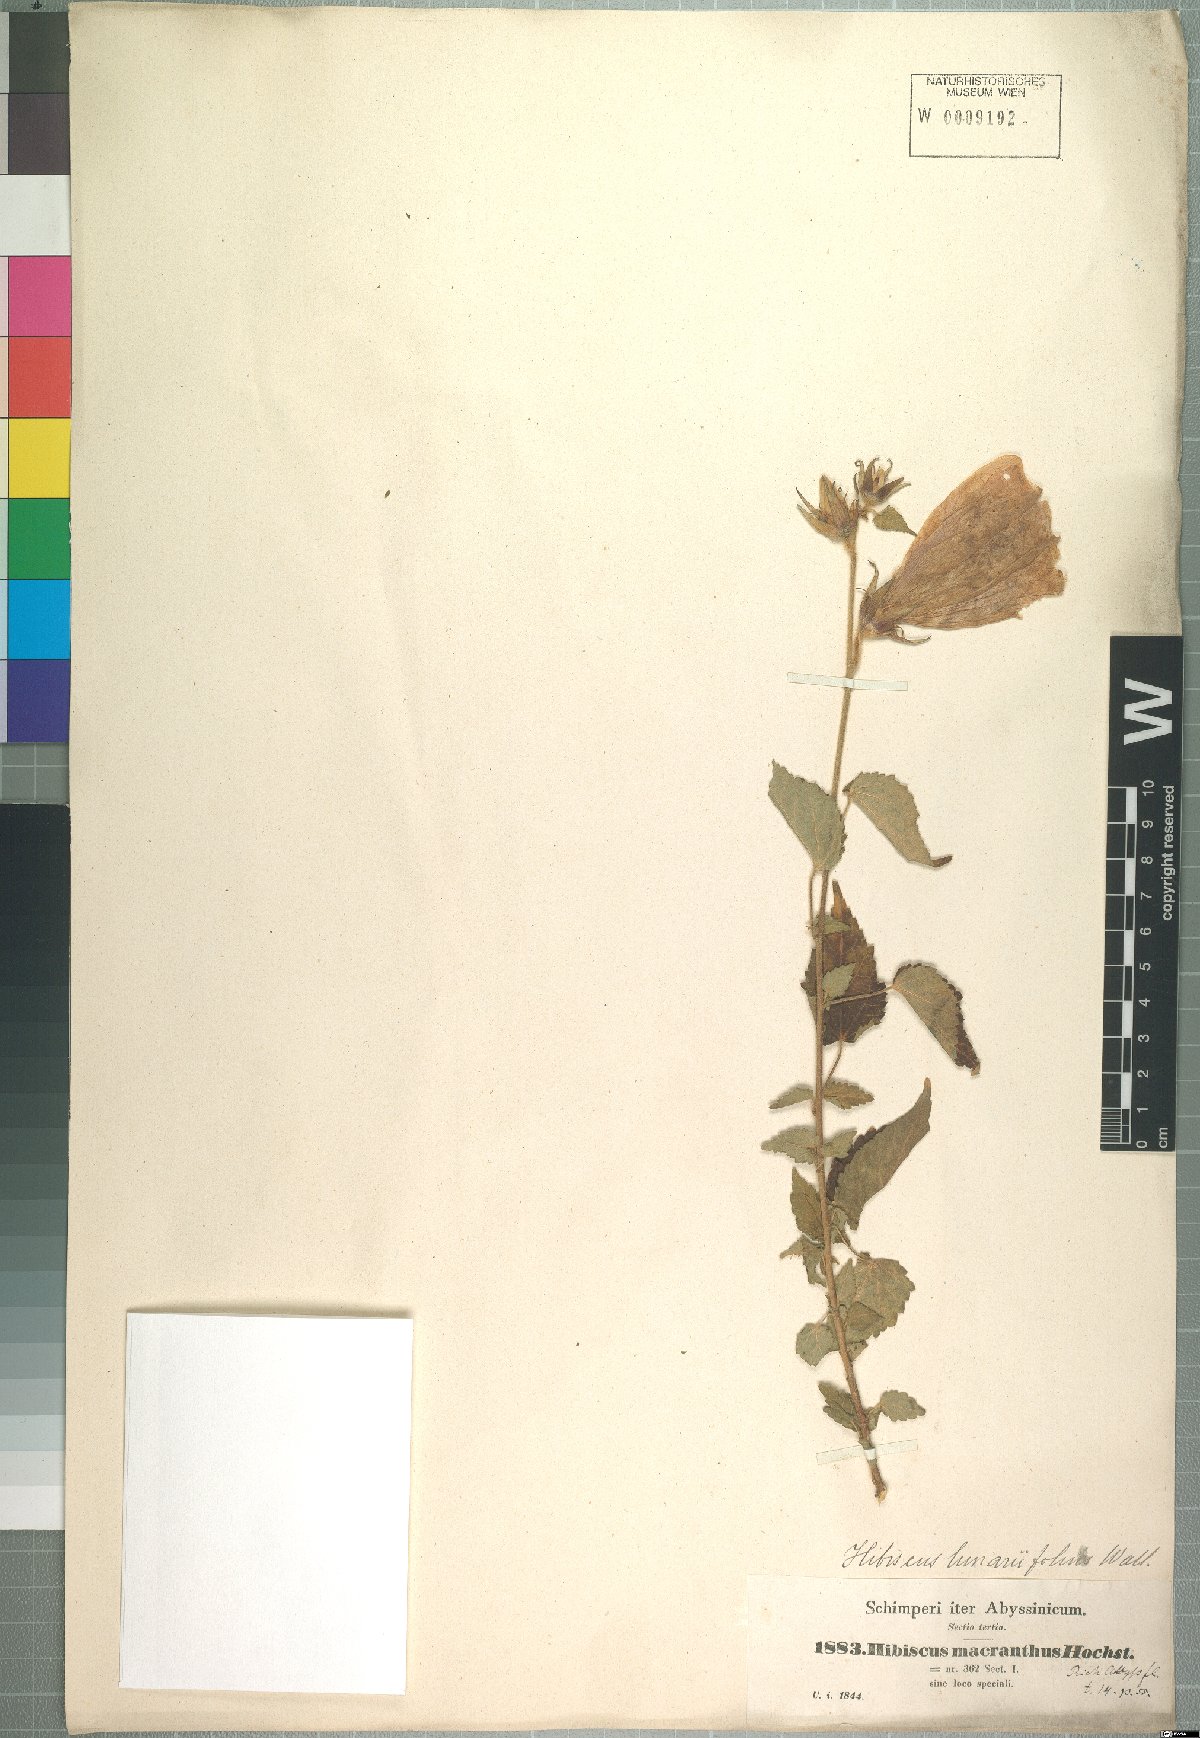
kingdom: Plantae
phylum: Tracheophyta
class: Magnoliopsida
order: Malvales
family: Malvaceae
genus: Hibiscus
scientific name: Hibiscus macranthus
